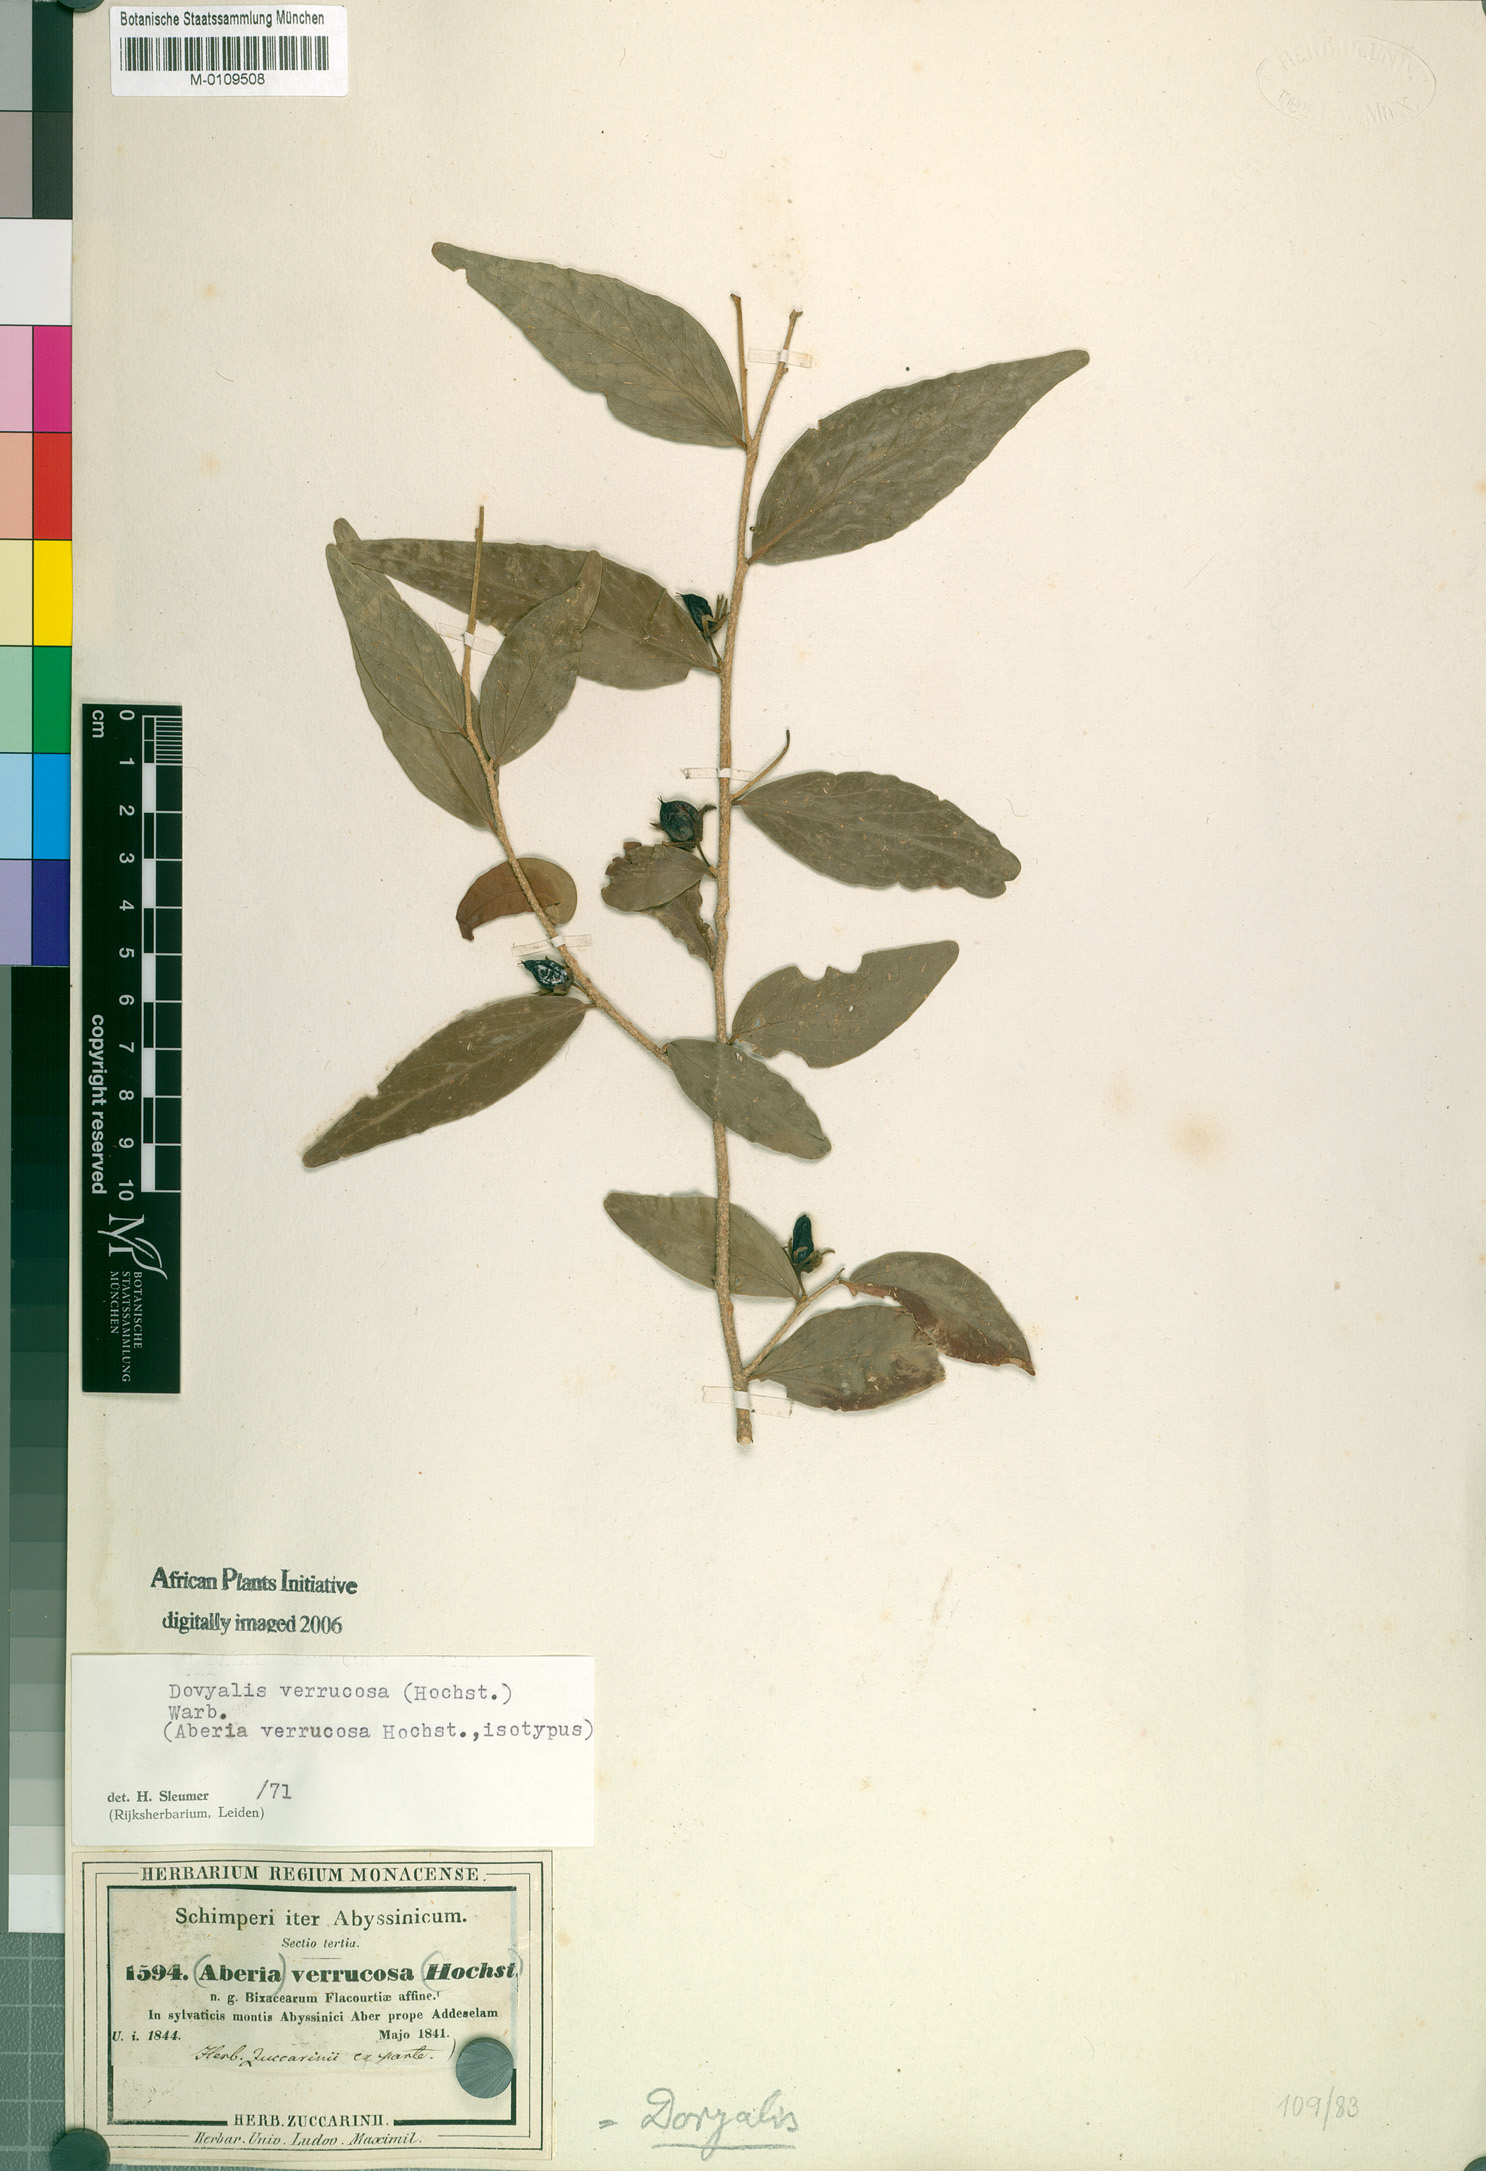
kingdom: Plantae
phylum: Tracheophyta
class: Magnoliopsida
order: Malpighiales
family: Salicaceae
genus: Dovyalis
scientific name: Dovyalis verrucosa
